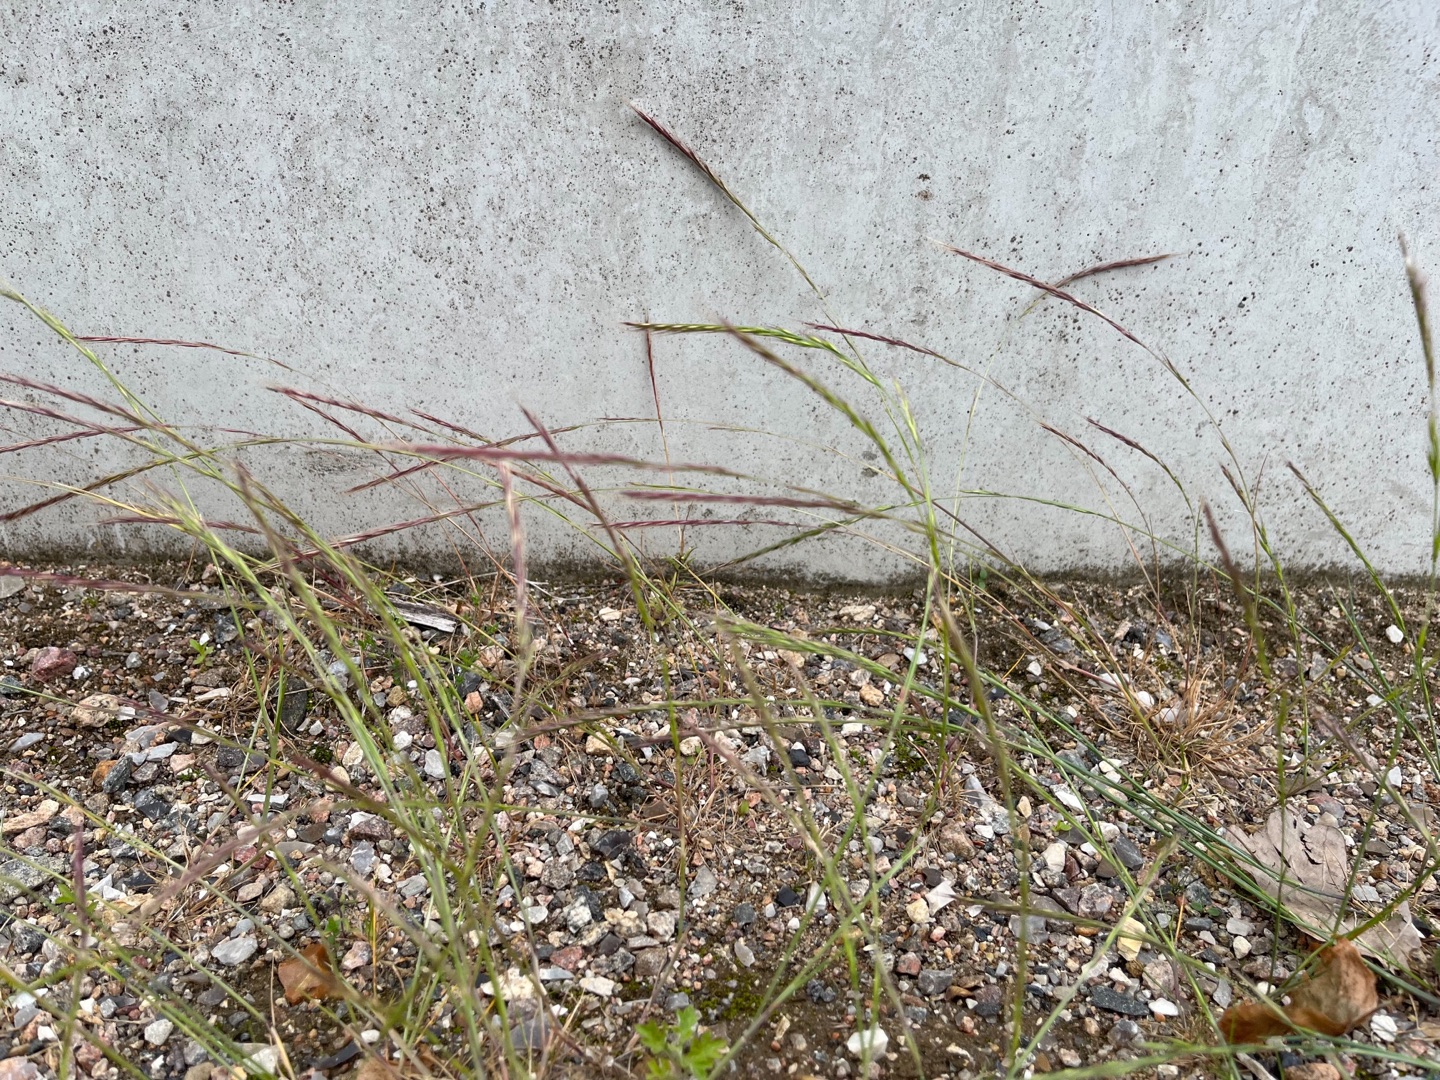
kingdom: Plantae
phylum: Tracheophyta
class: Liliopsida
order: Poales
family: Poaceae
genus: Festuca
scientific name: Festuca muralis
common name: Mur-væselhale
